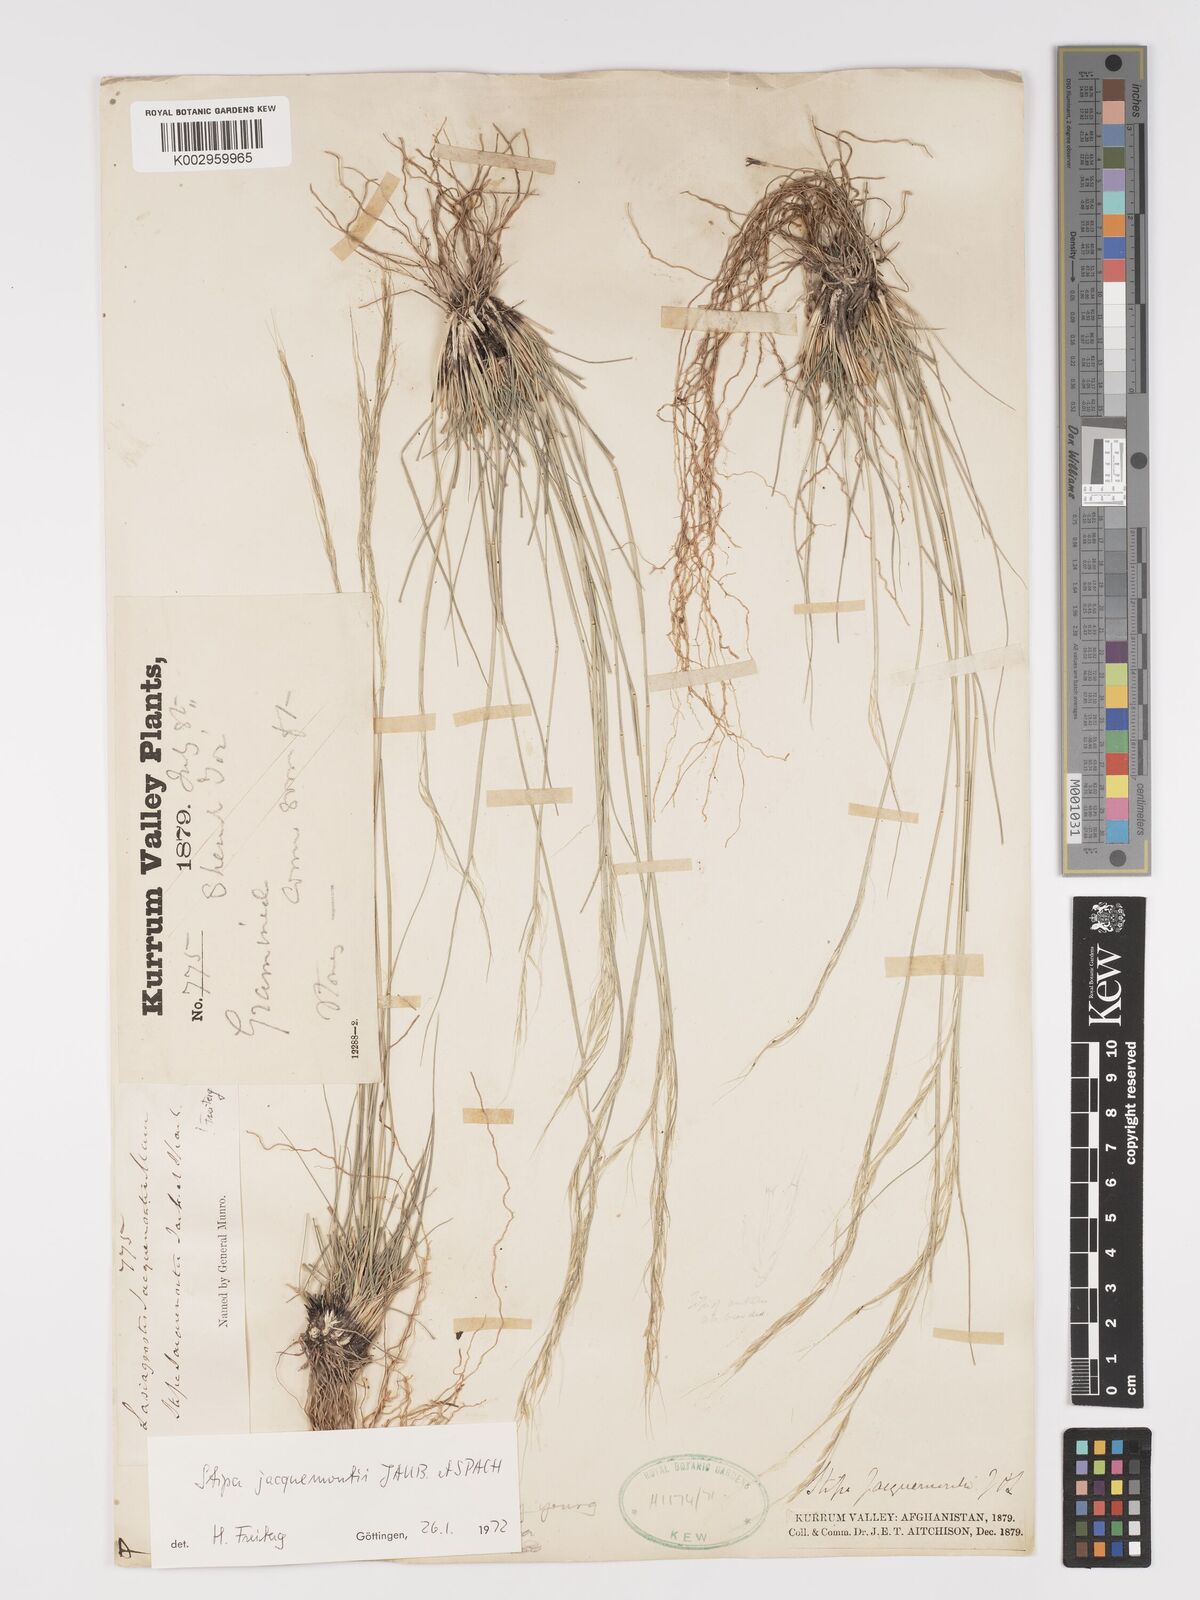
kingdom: Plantae
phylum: Tracheophyta
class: Liliopsida
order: Poales
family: Poaceae
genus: Achnatherum
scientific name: Achnatherum jacquemontii
